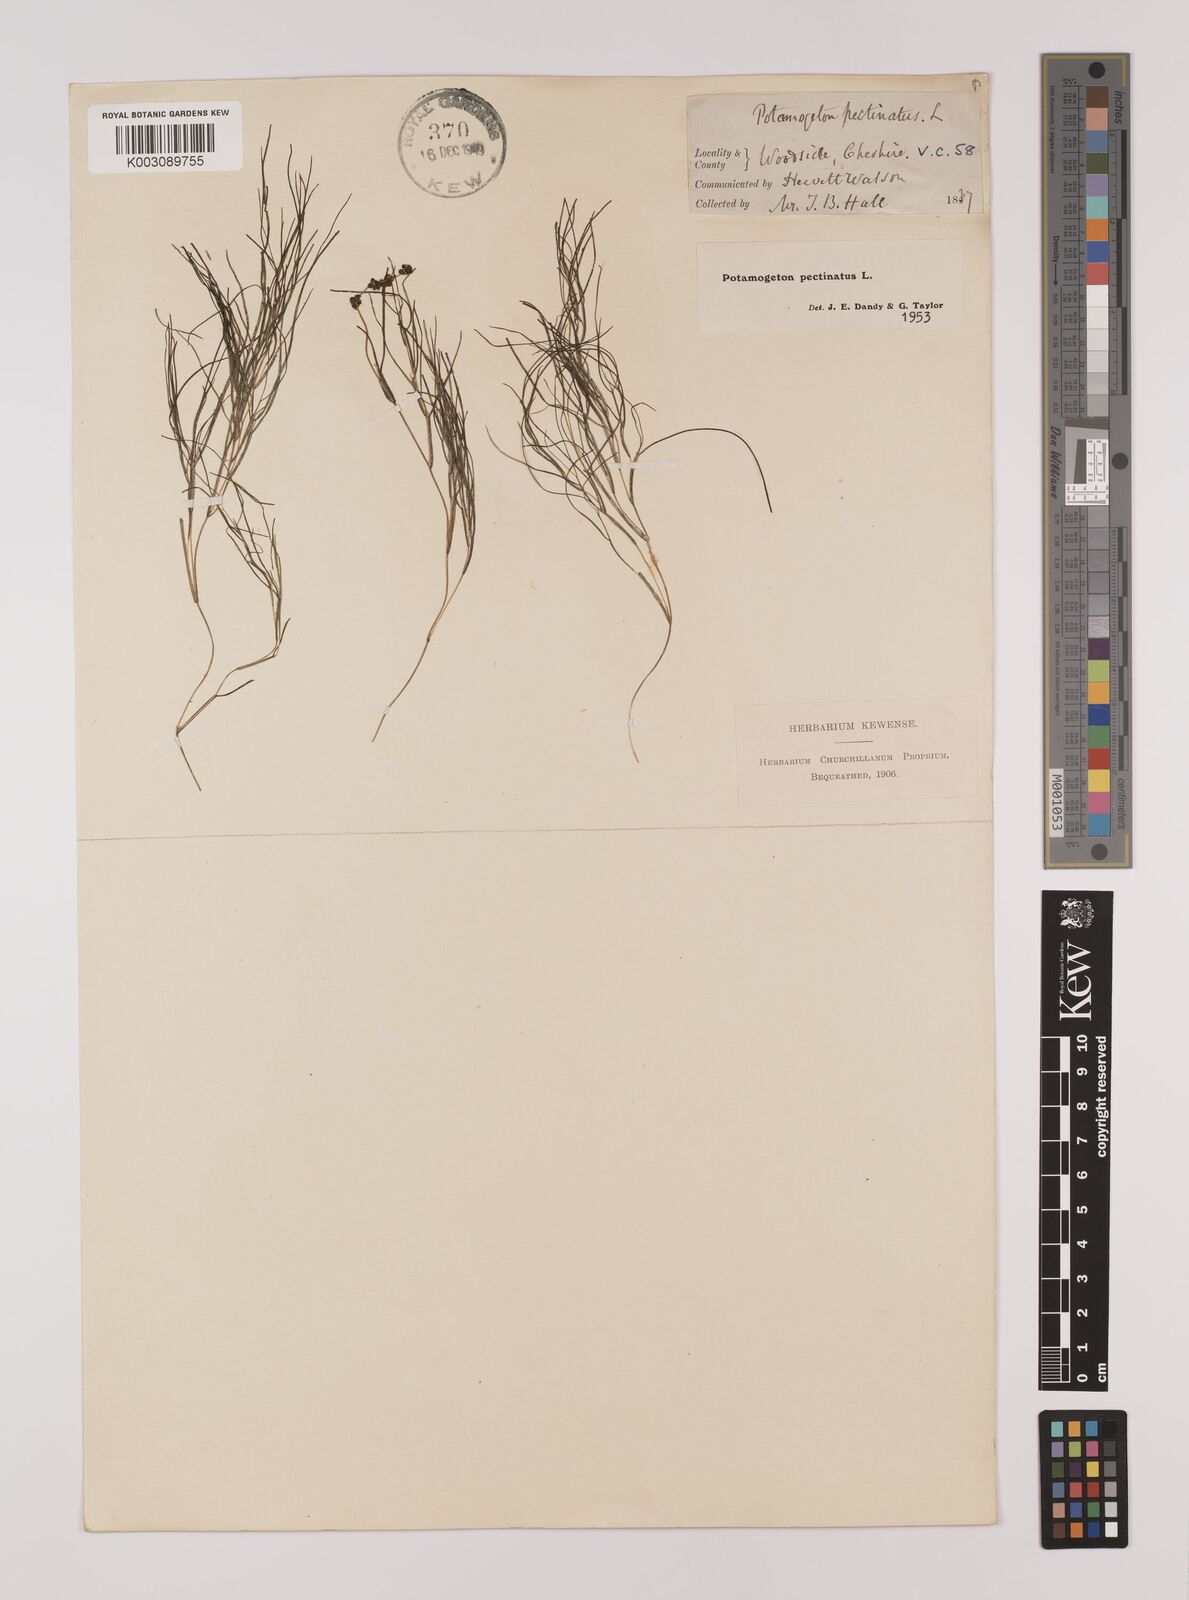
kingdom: Plantae
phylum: Tracheophyta
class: Liliopsida
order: Alismatales
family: Potamogetonaceae
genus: Stuckenia
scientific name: Stuckenia pectinata
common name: Sago pondweed
